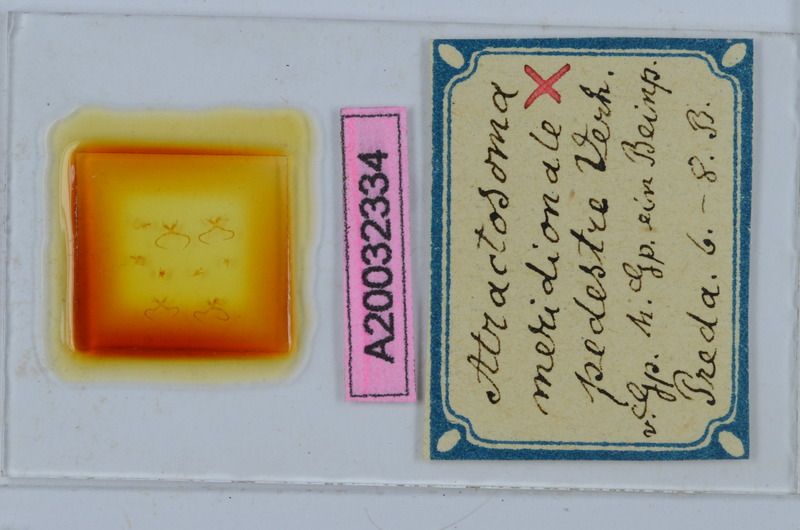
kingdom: Animalia
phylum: Arthropoda
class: Diplopoda
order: Chordeumatida
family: Craspedosomatidae
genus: Atractosoma
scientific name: Atractosoma meridionale
